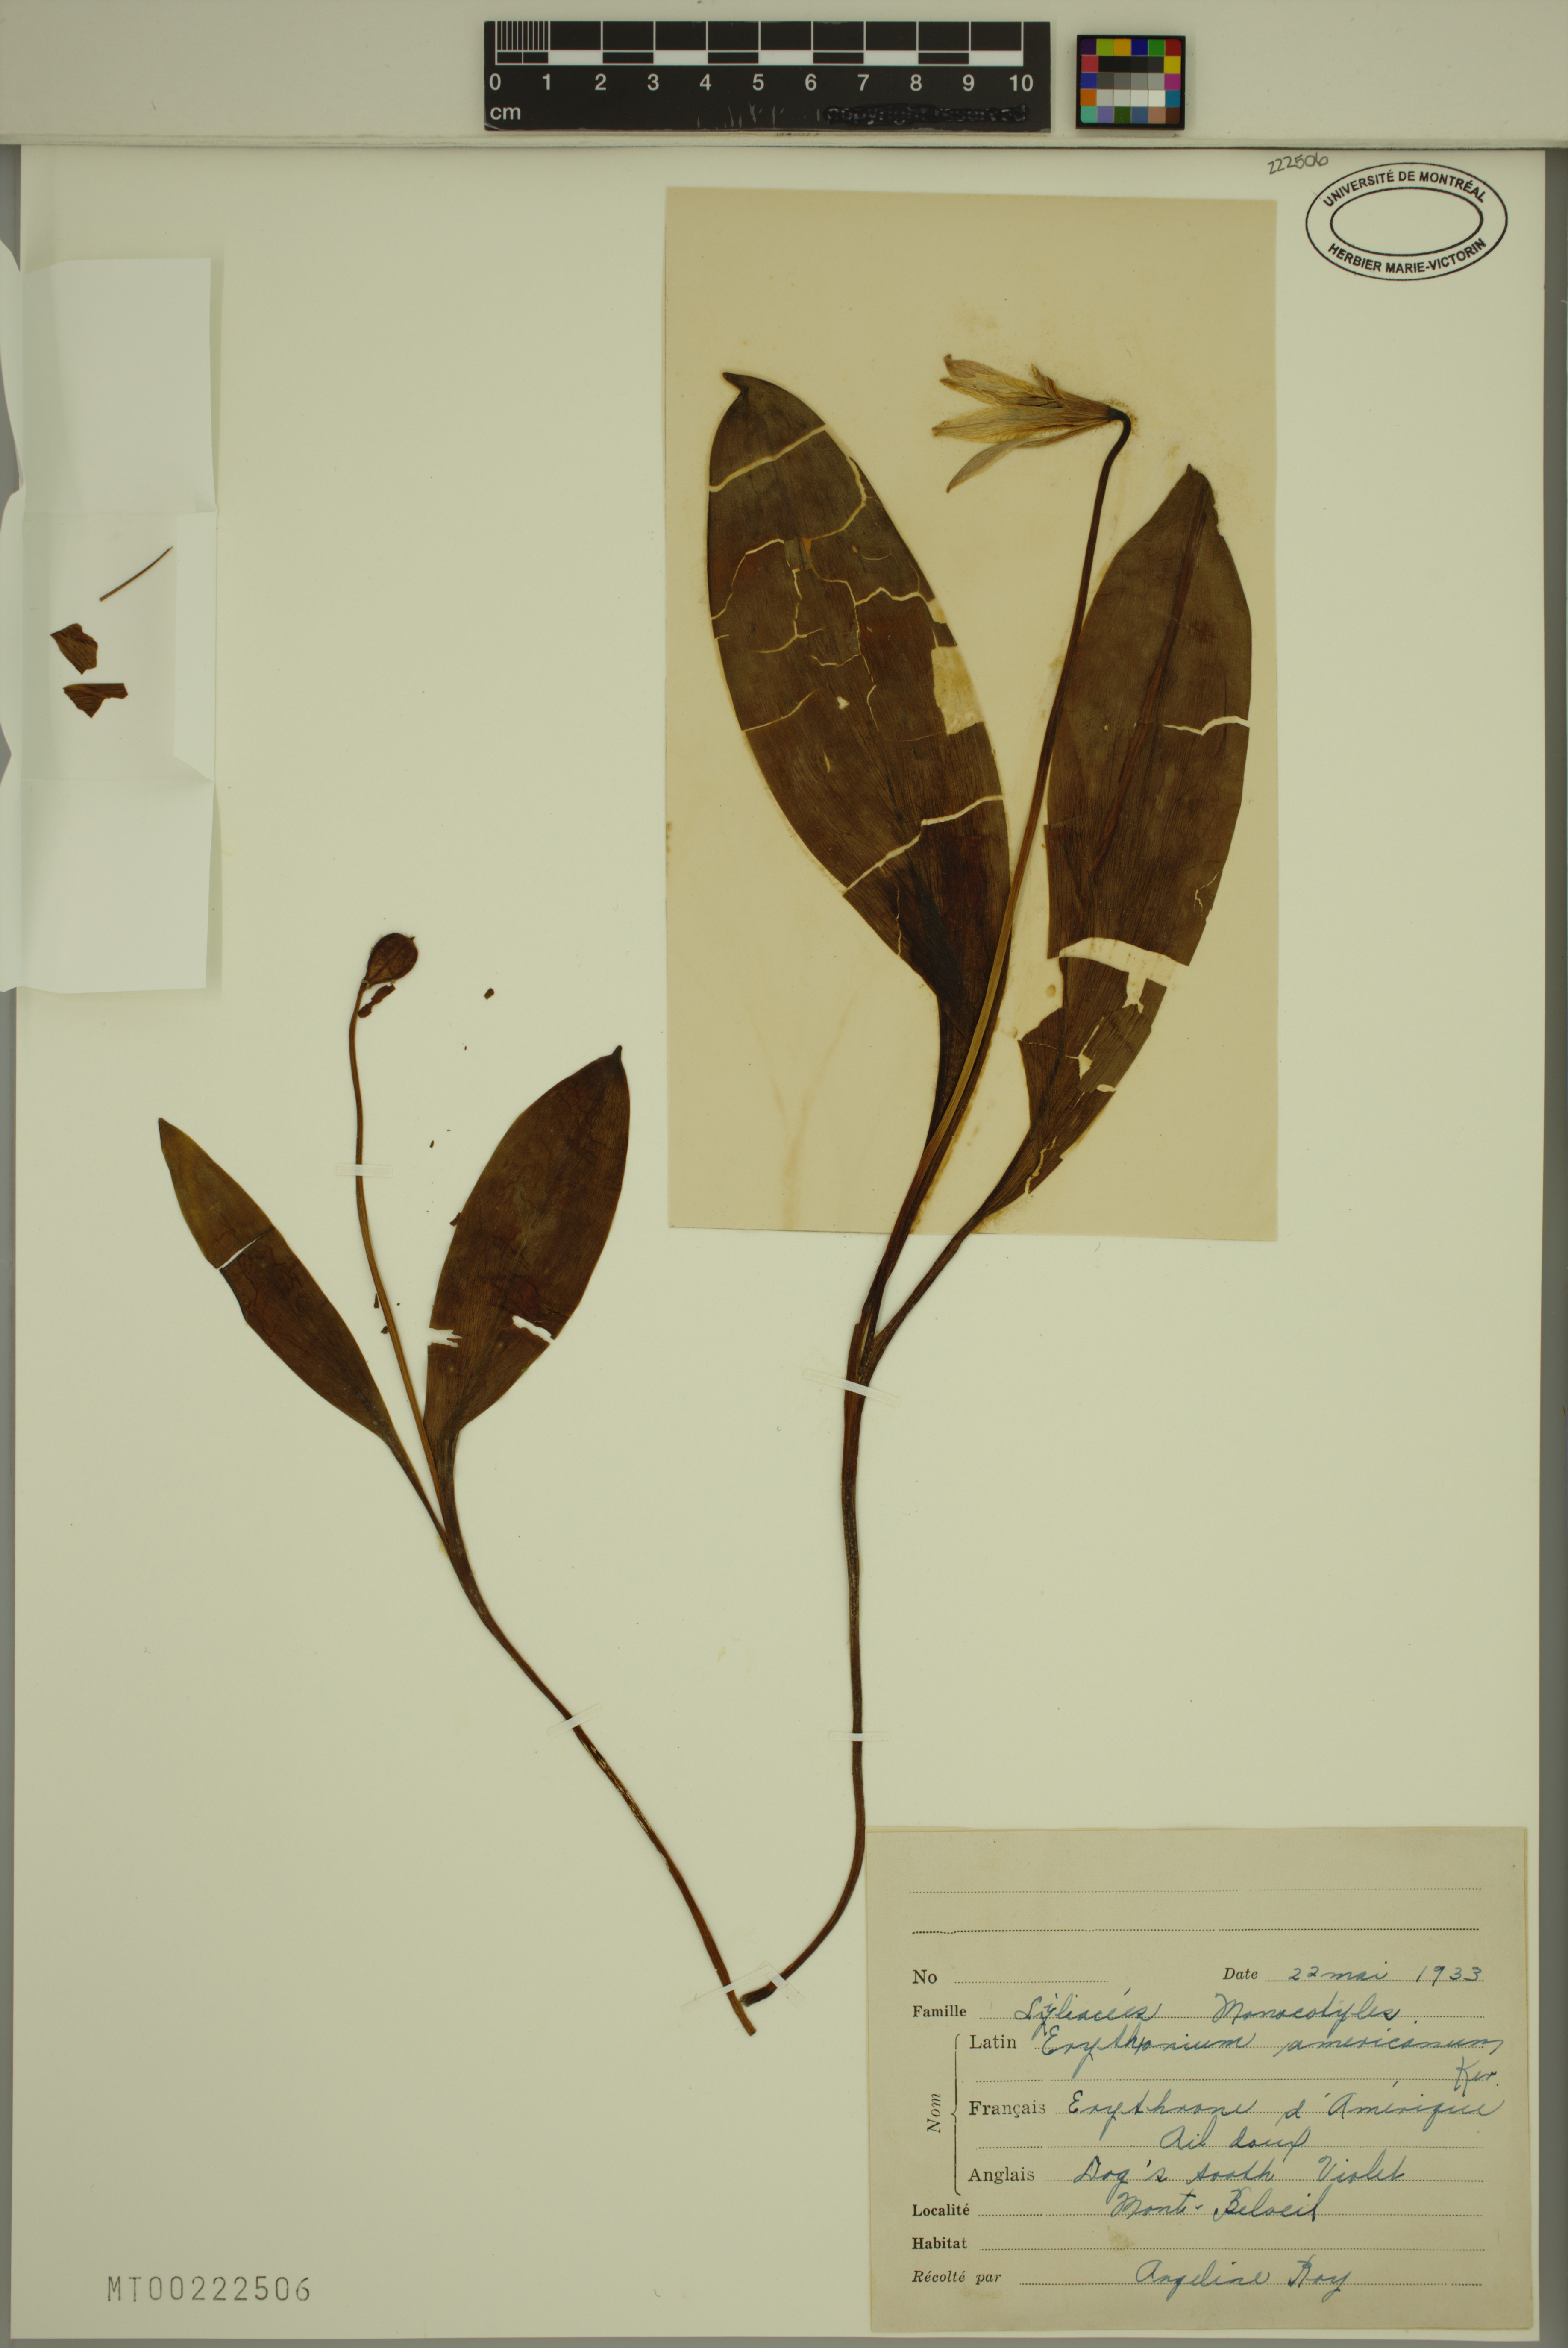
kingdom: Plantae
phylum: Tracheophyta
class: Liliopsida
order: Liliales
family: Liliaceae
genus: Erythronium
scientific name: Erythronium americanum
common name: Yellow adder's-tongue
